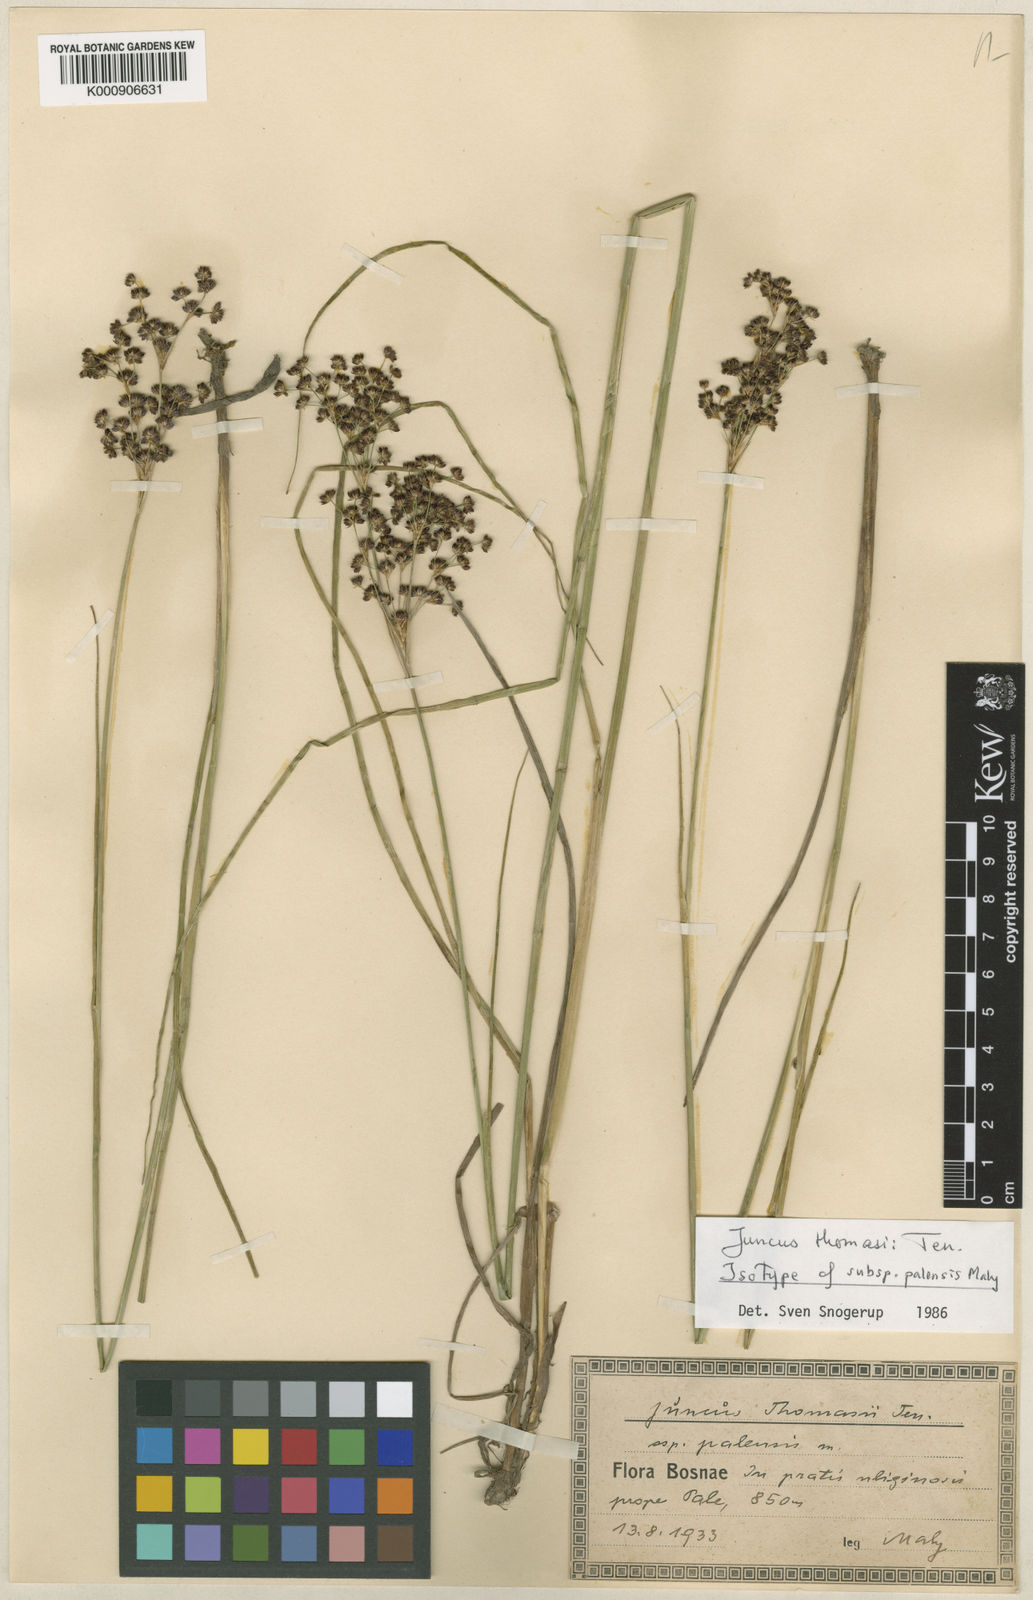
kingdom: Plantae
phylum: Tracheophyta
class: Liliopsida
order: Poales
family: Juncaceae
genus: Juncus
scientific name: Juncus thomasii
